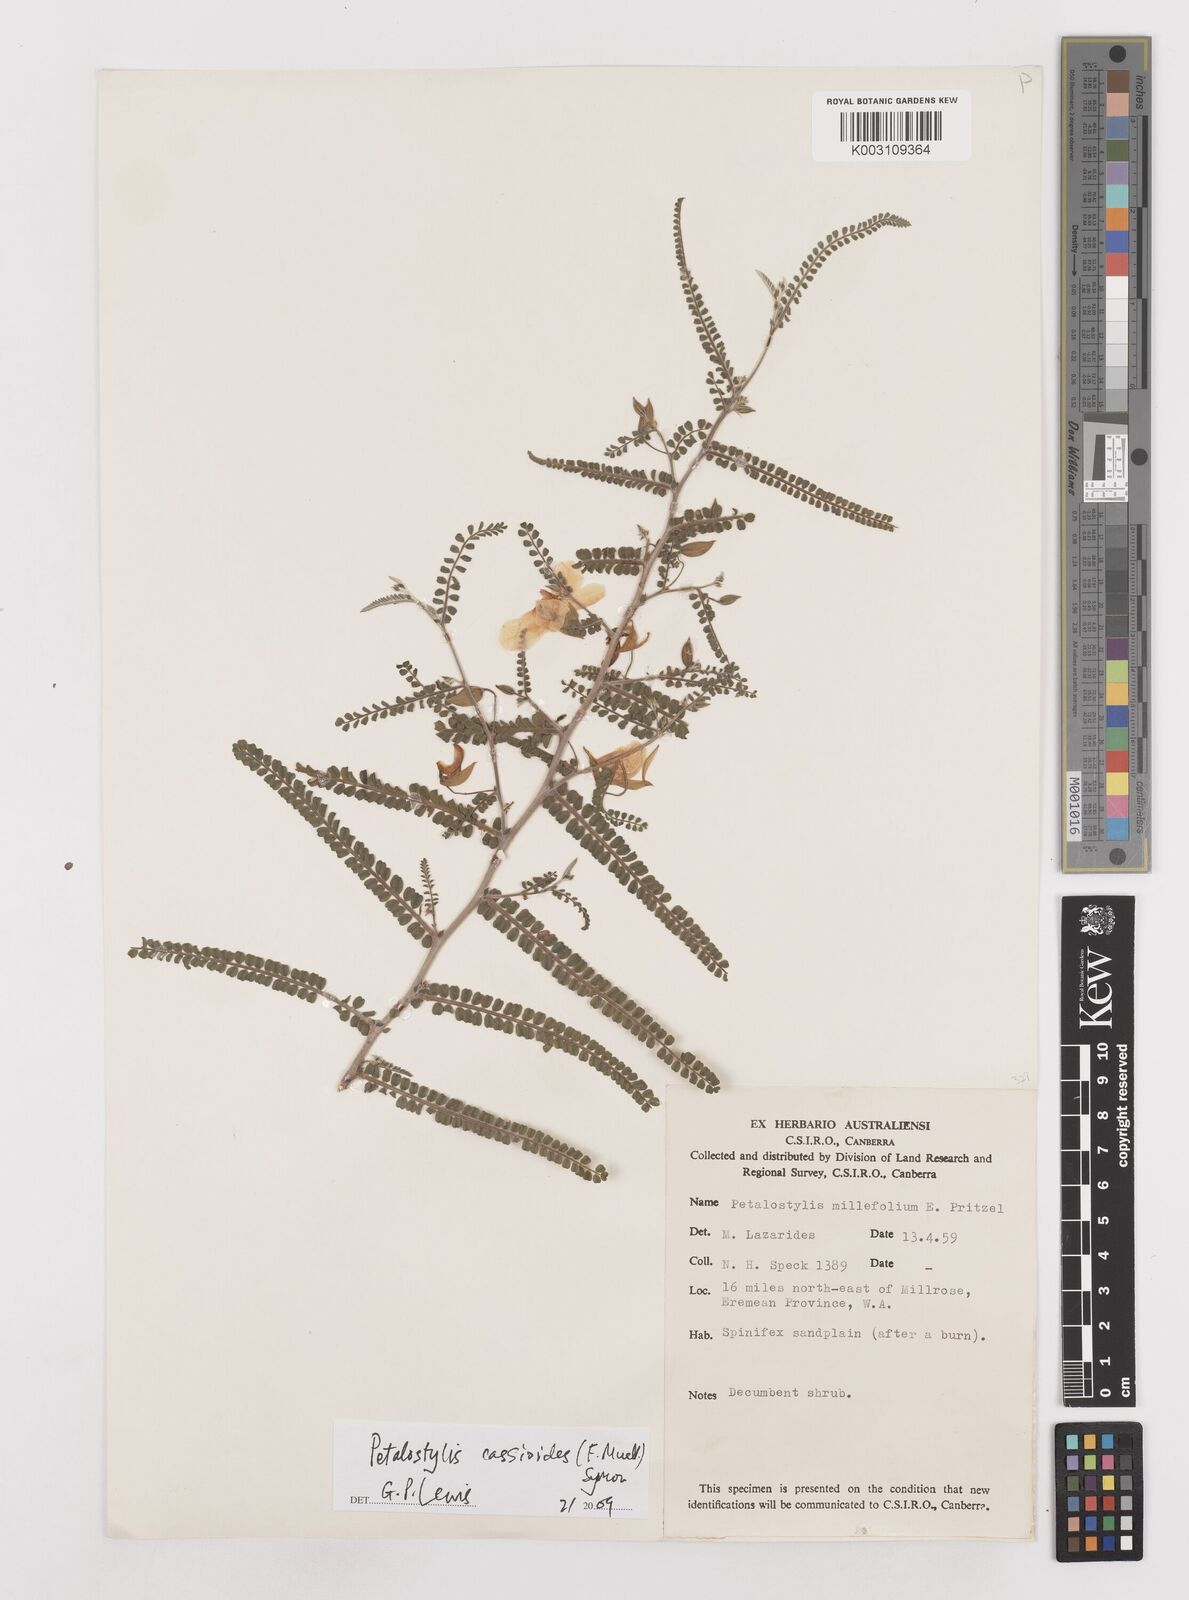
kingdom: Plantae
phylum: Tracheophyta
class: Magnoliopsida
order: Fabales
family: Fabaceae
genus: Petalostylis
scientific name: Petalostylis cassioides
